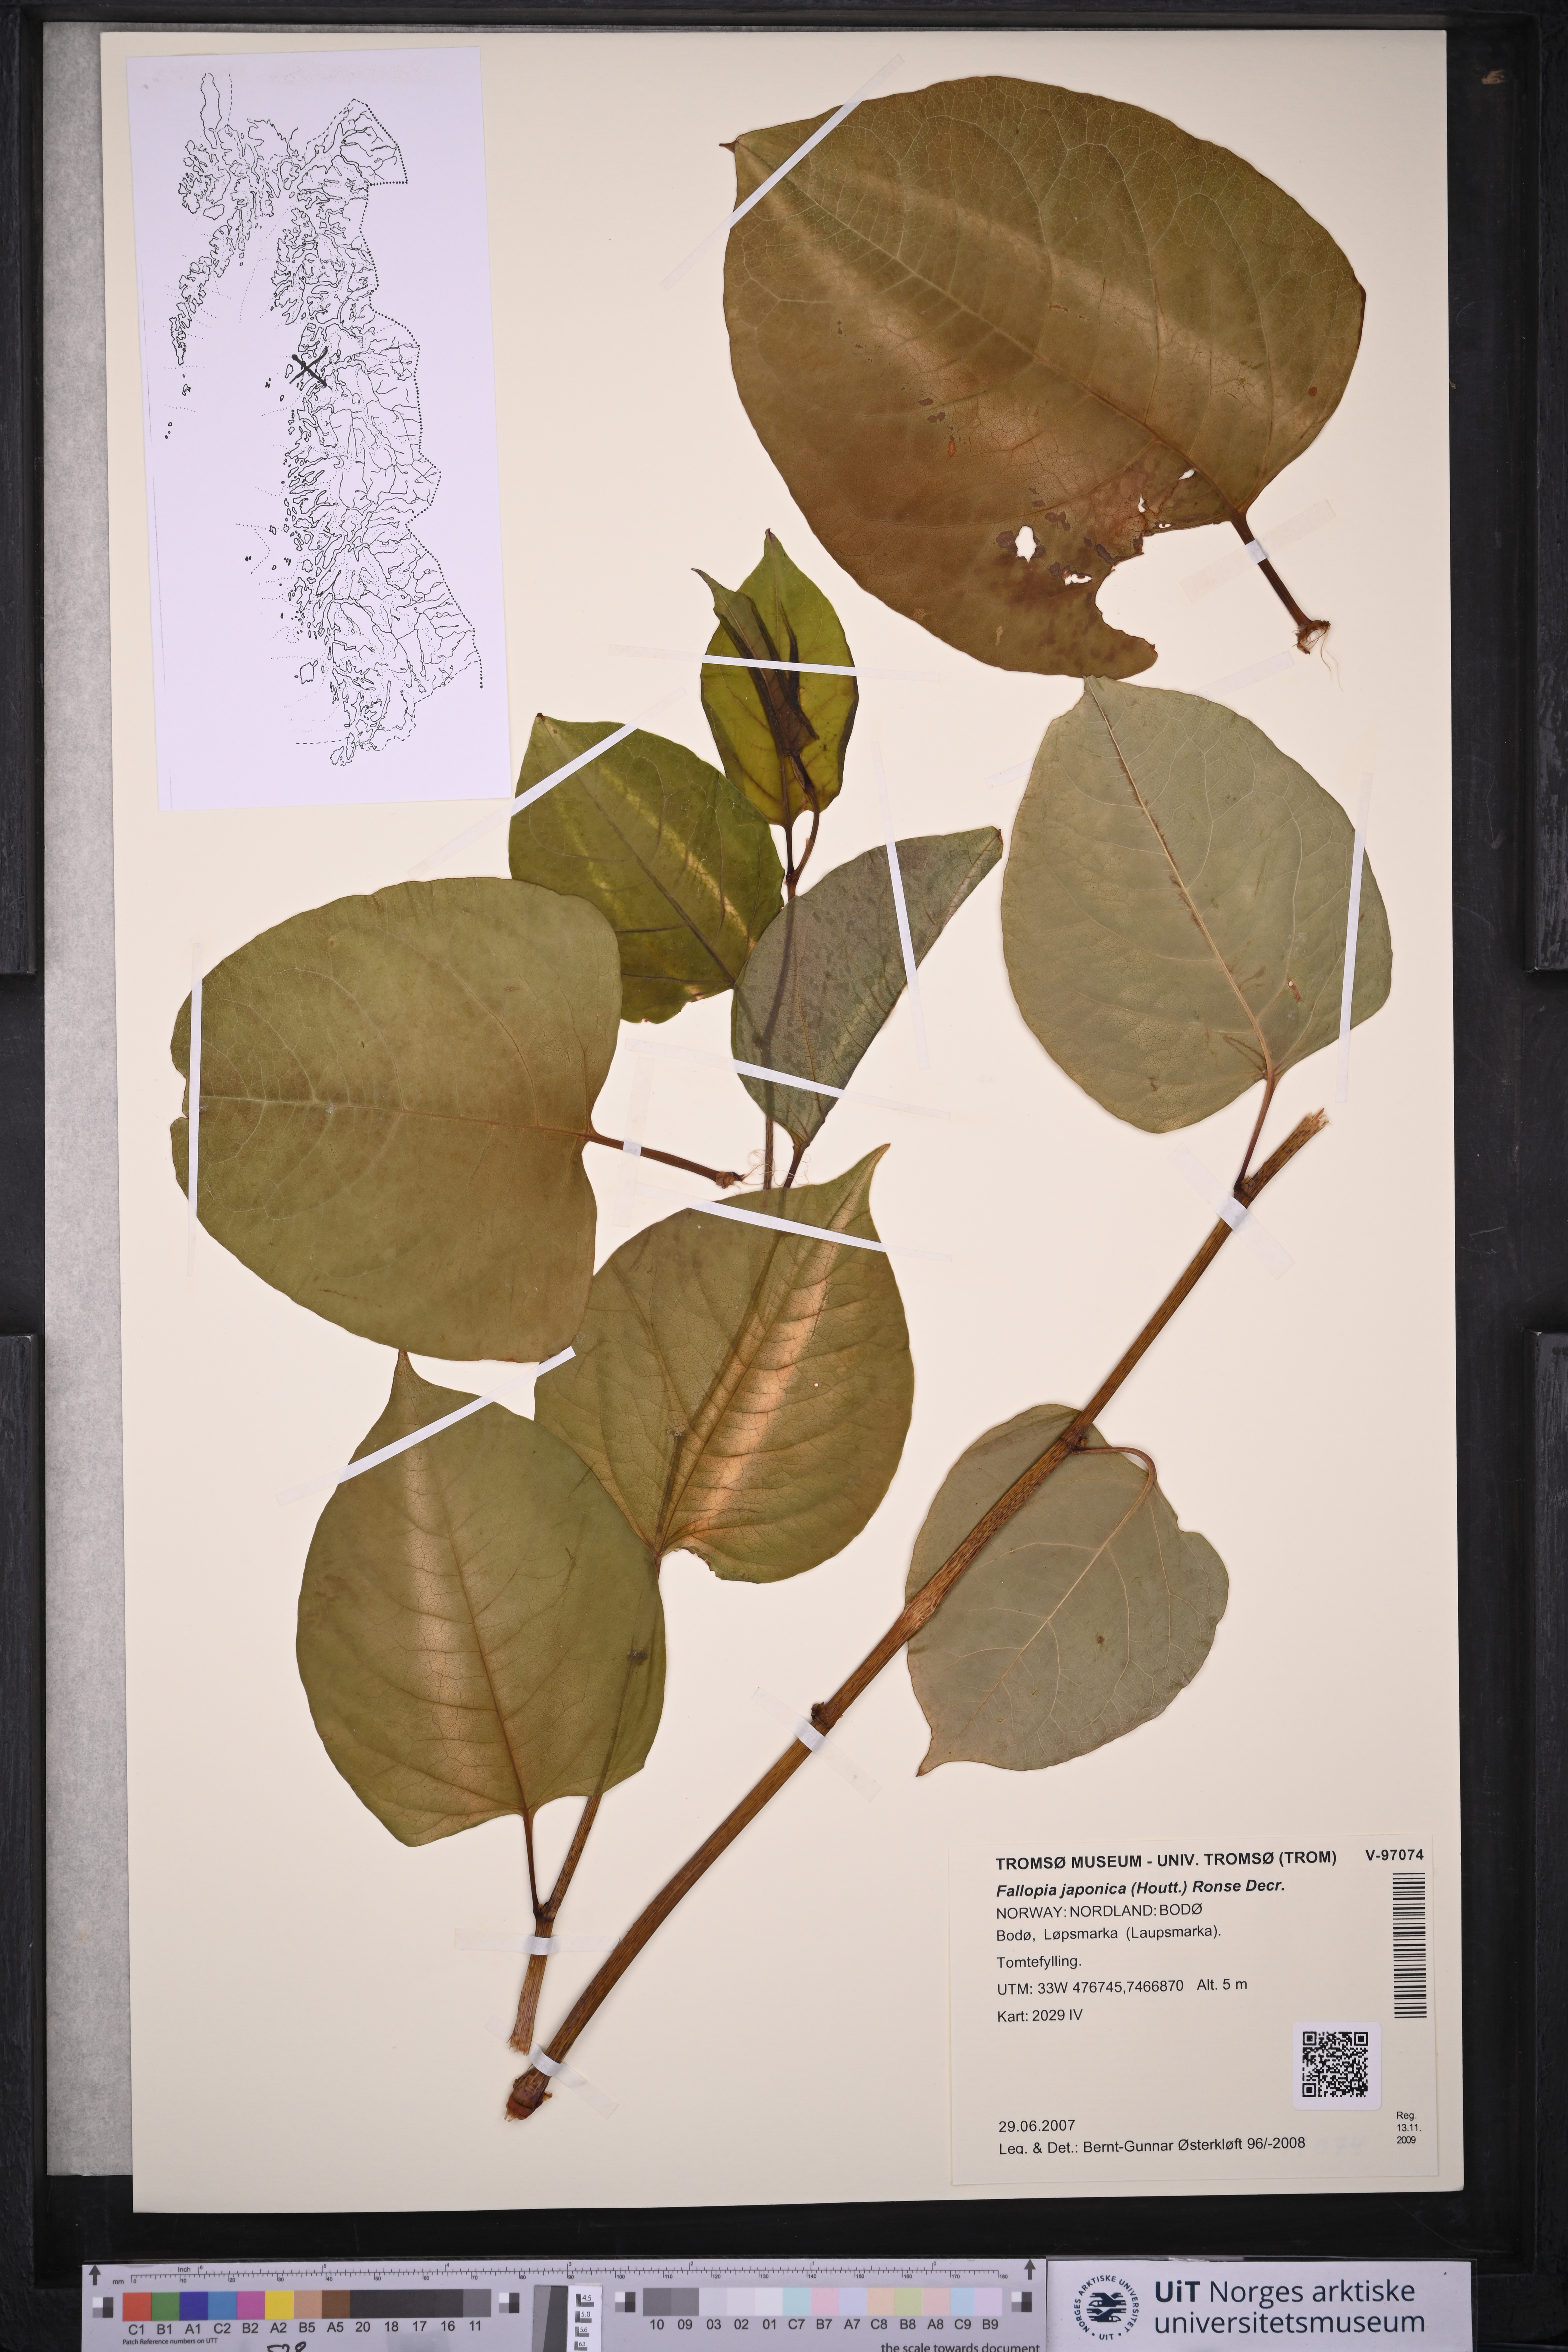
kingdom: Plantae
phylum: Tracheophyta
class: Magnoliopsida
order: Caryophyllales
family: Polygonaceae
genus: Reynoutria
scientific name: Reynoutria japonica
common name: Japanese knotweed
